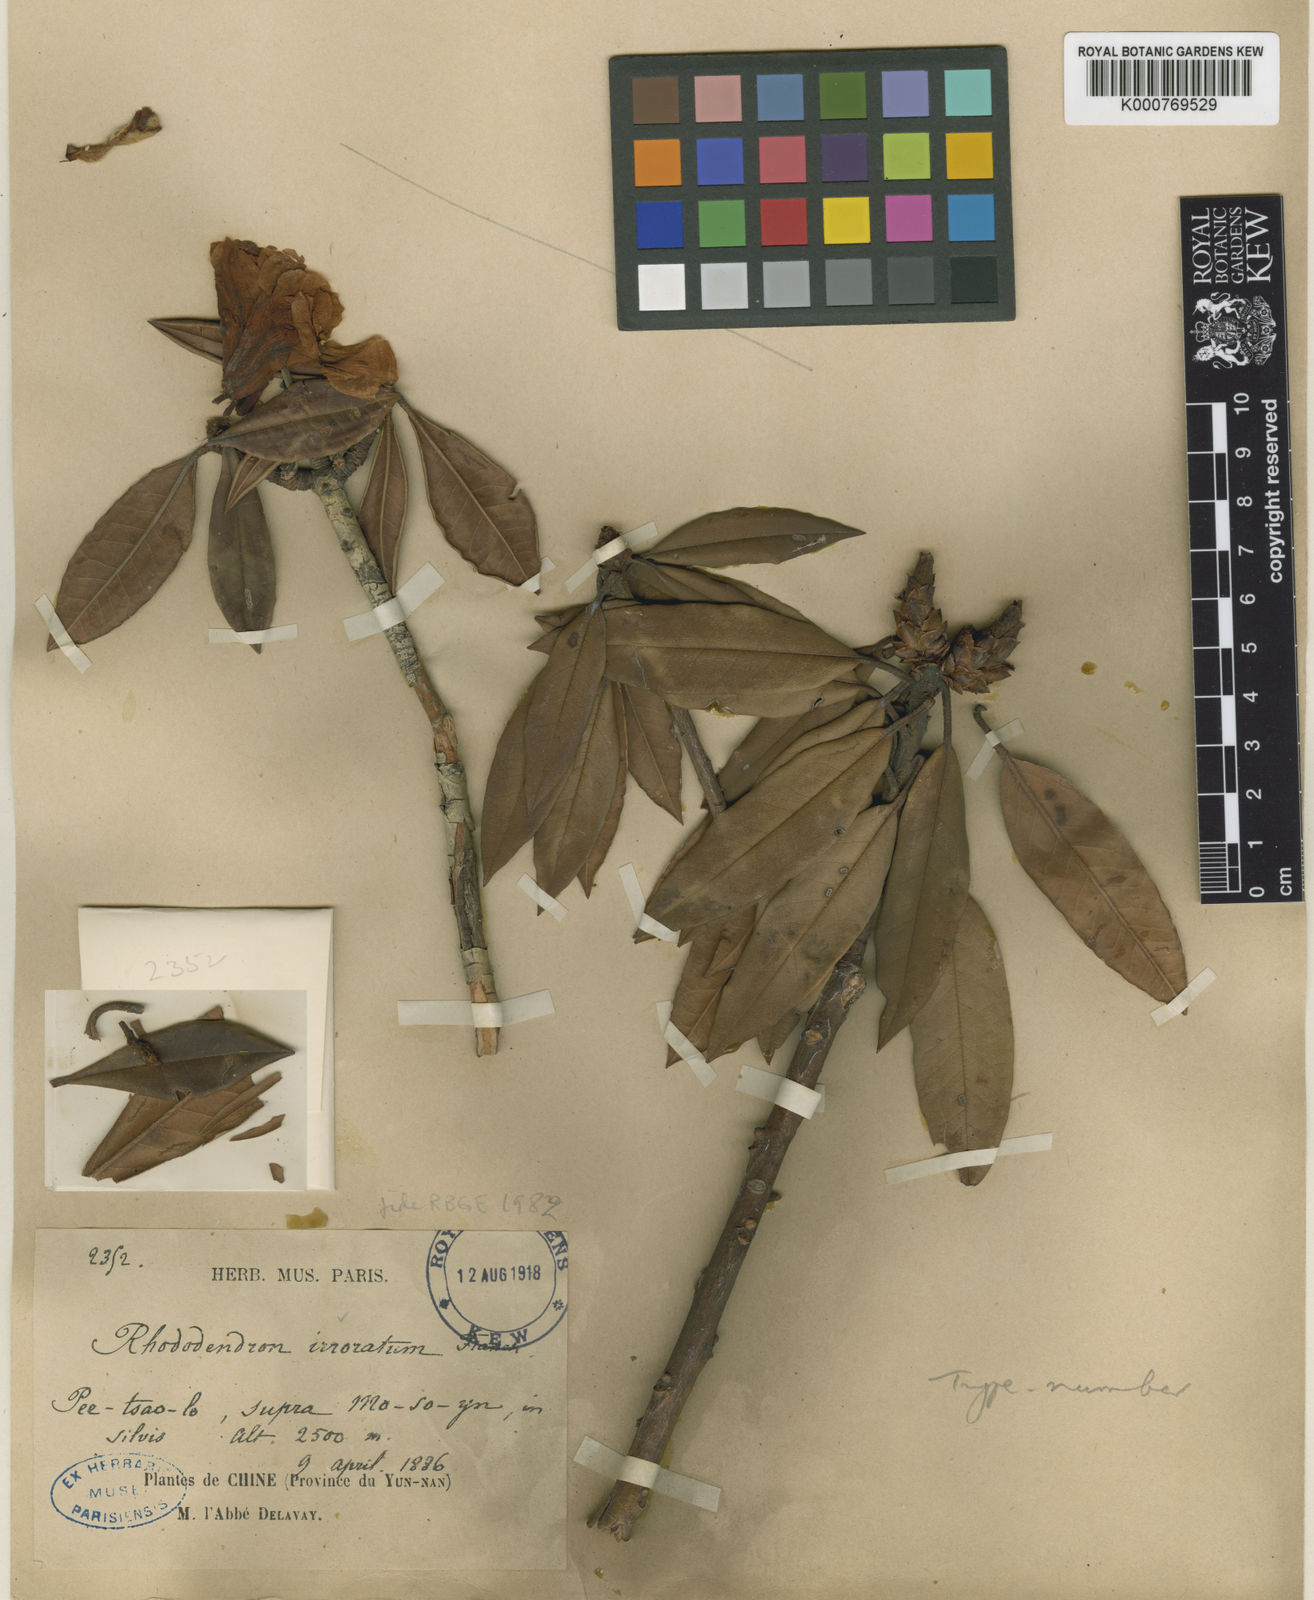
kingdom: Plantae
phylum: Tracheophyta
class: Magnoliopsida
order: Ericales
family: Ericaceae
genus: Rhododendron
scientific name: Rhododendron irroratum
